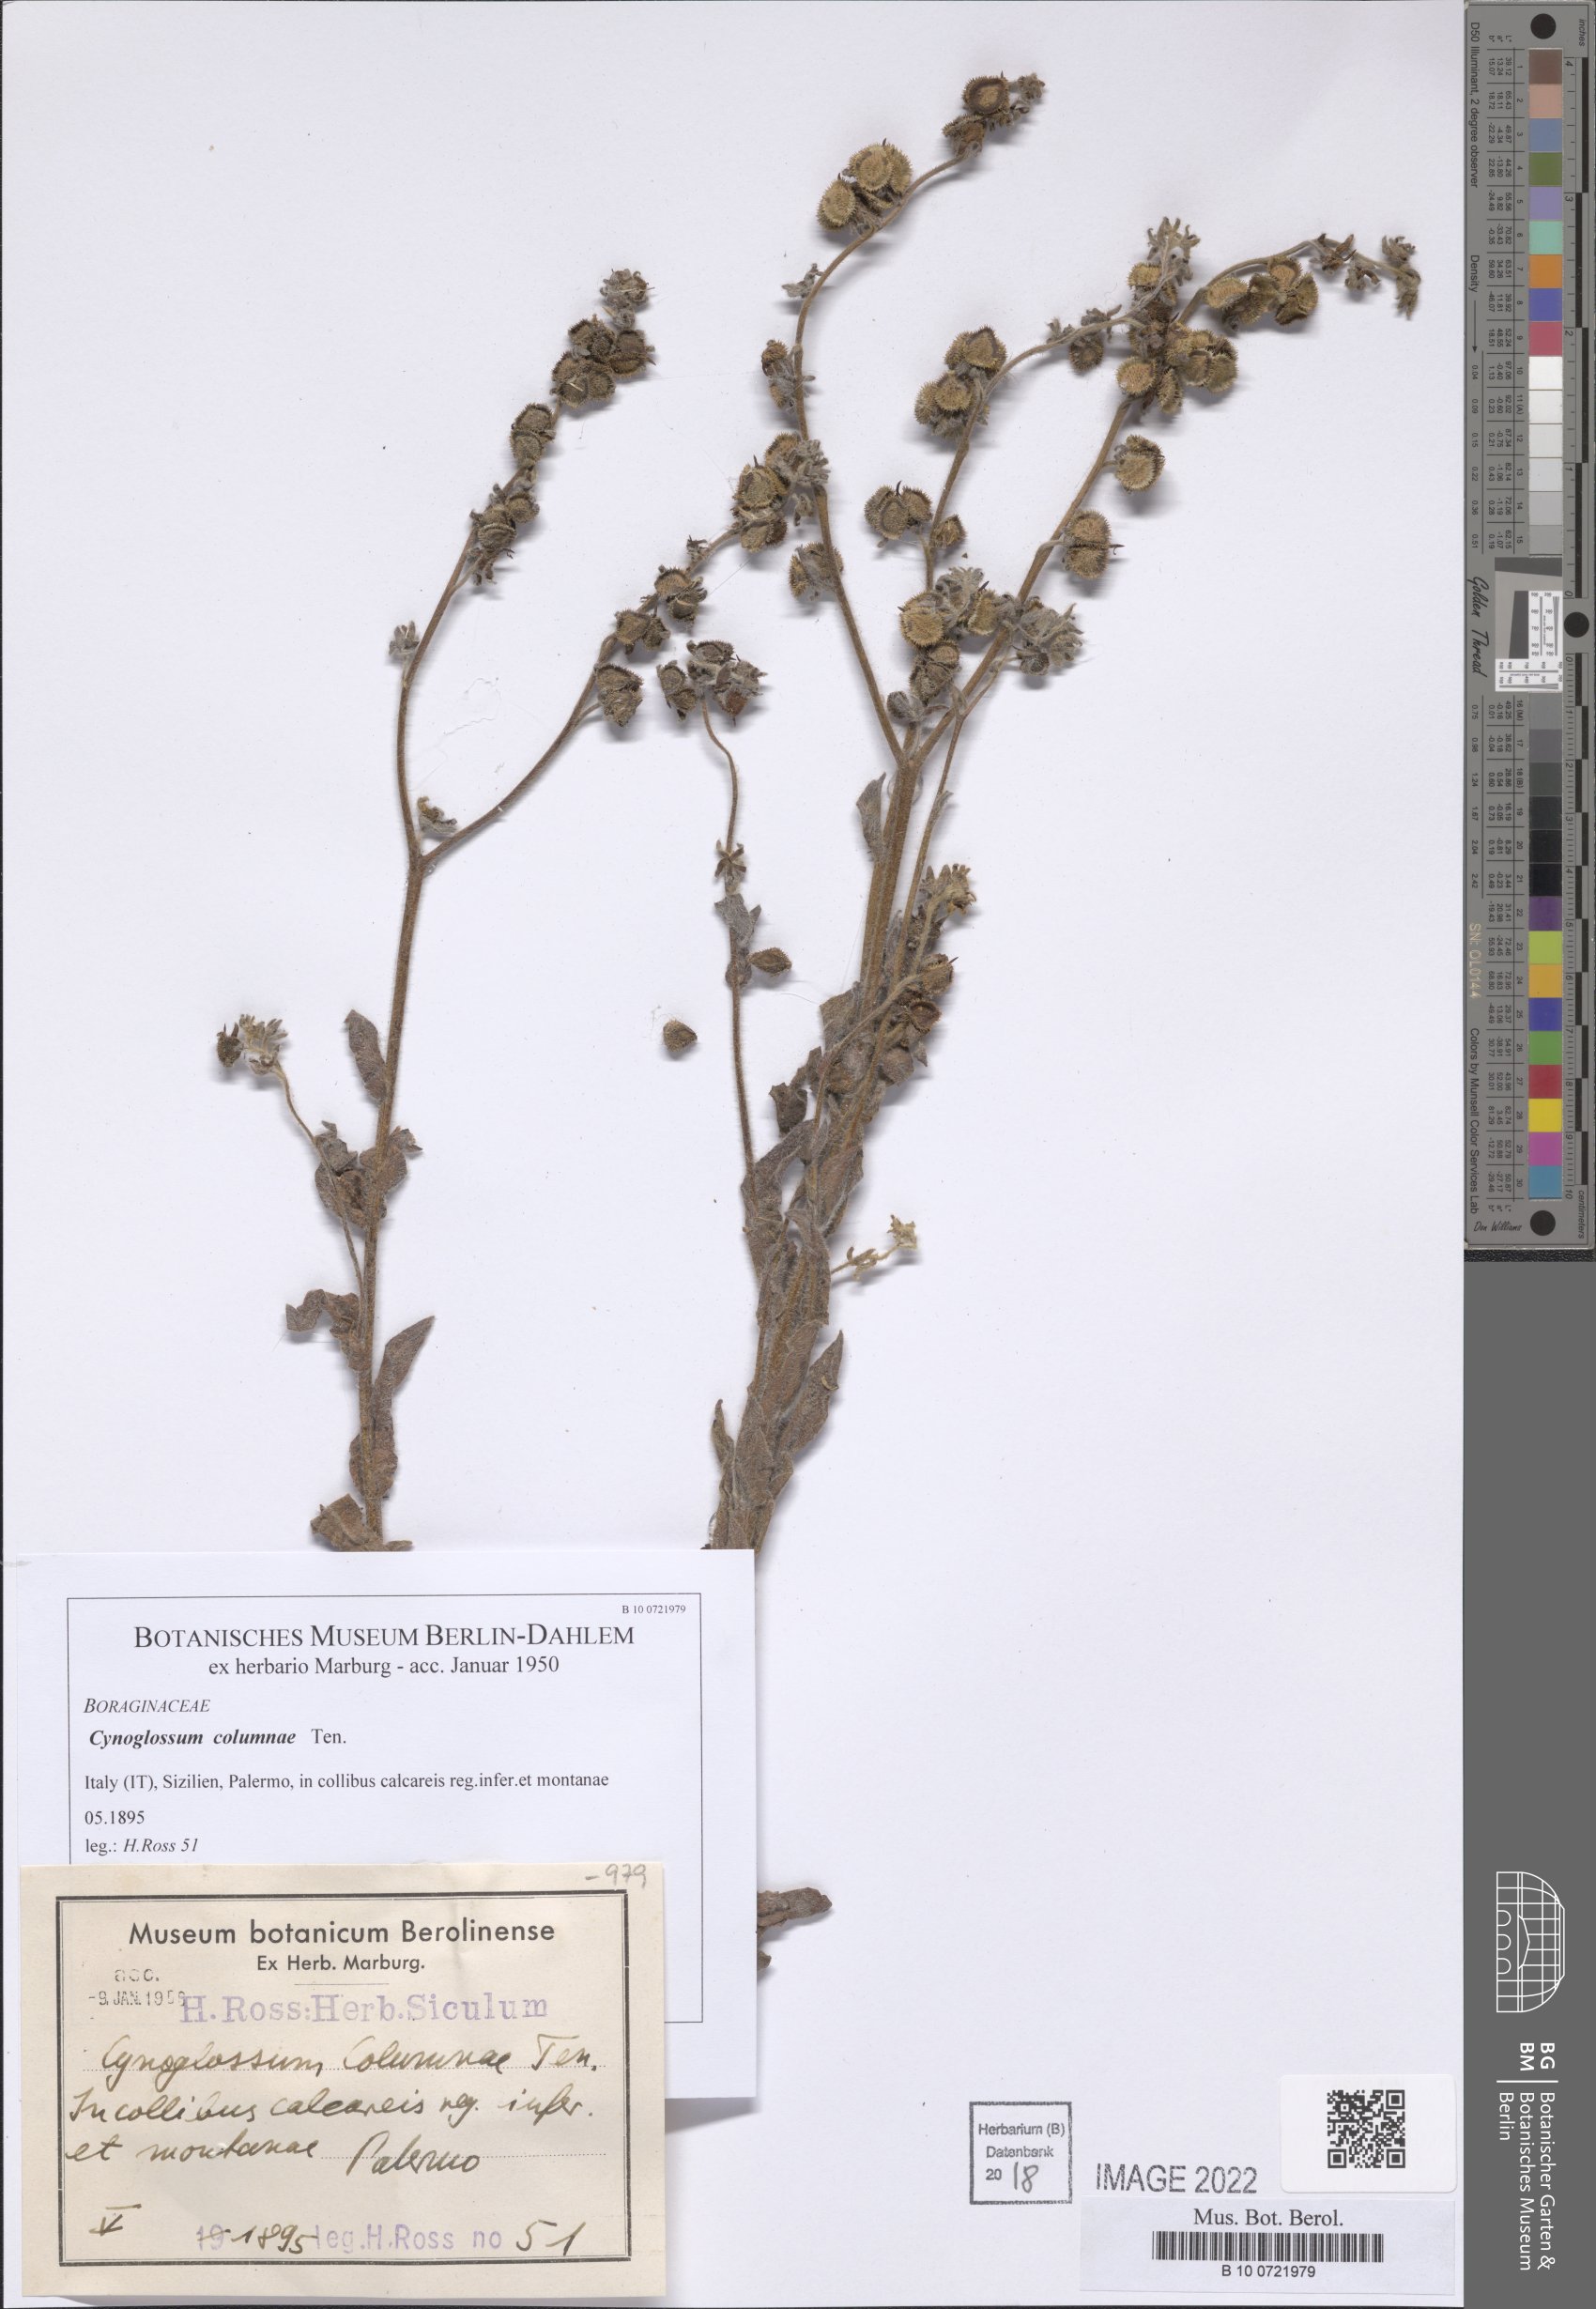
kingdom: Plantae
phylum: Tracheophyta
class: Magnoliopsida
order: Boraginales
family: Boraginaceae
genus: Rindera
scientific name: Rindera columnae
